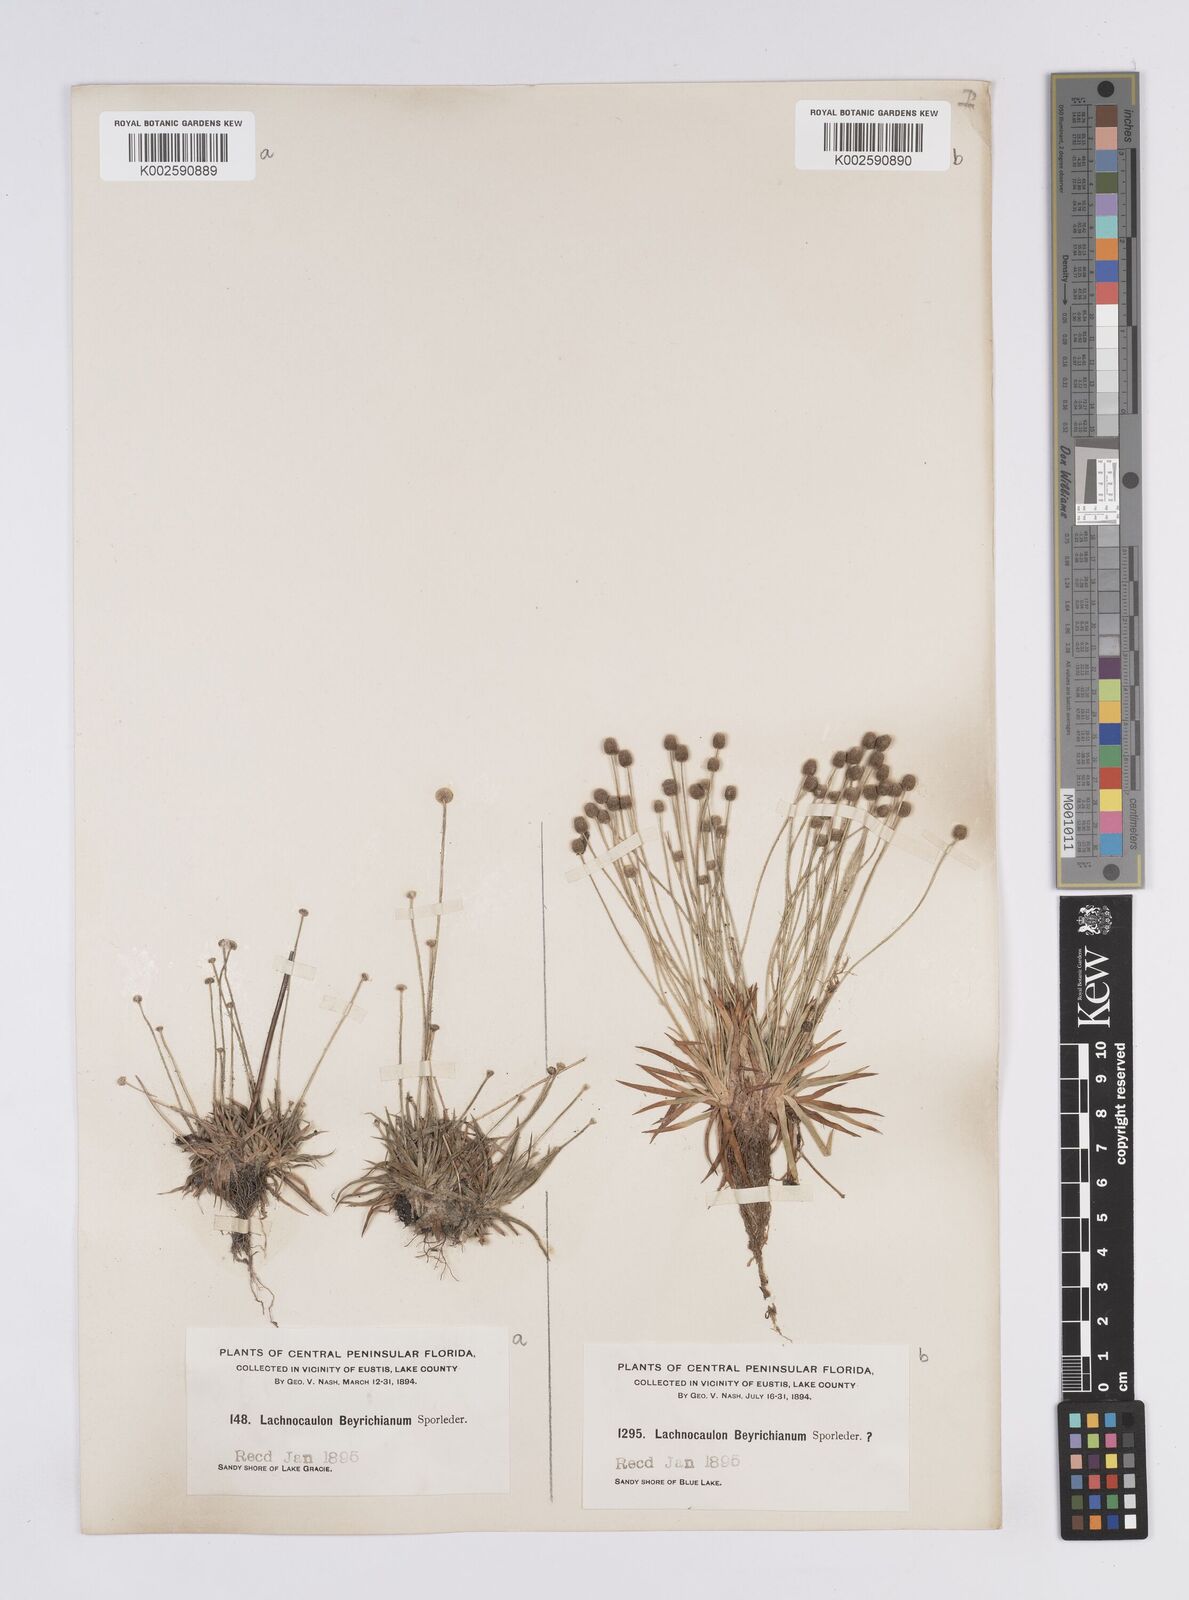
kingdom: Plantae
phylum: Tracheophyta
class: Liliopsida
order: Poales
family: Eriocaulaceae
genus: Paepalanthus
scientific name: Paepalanthus anceps
